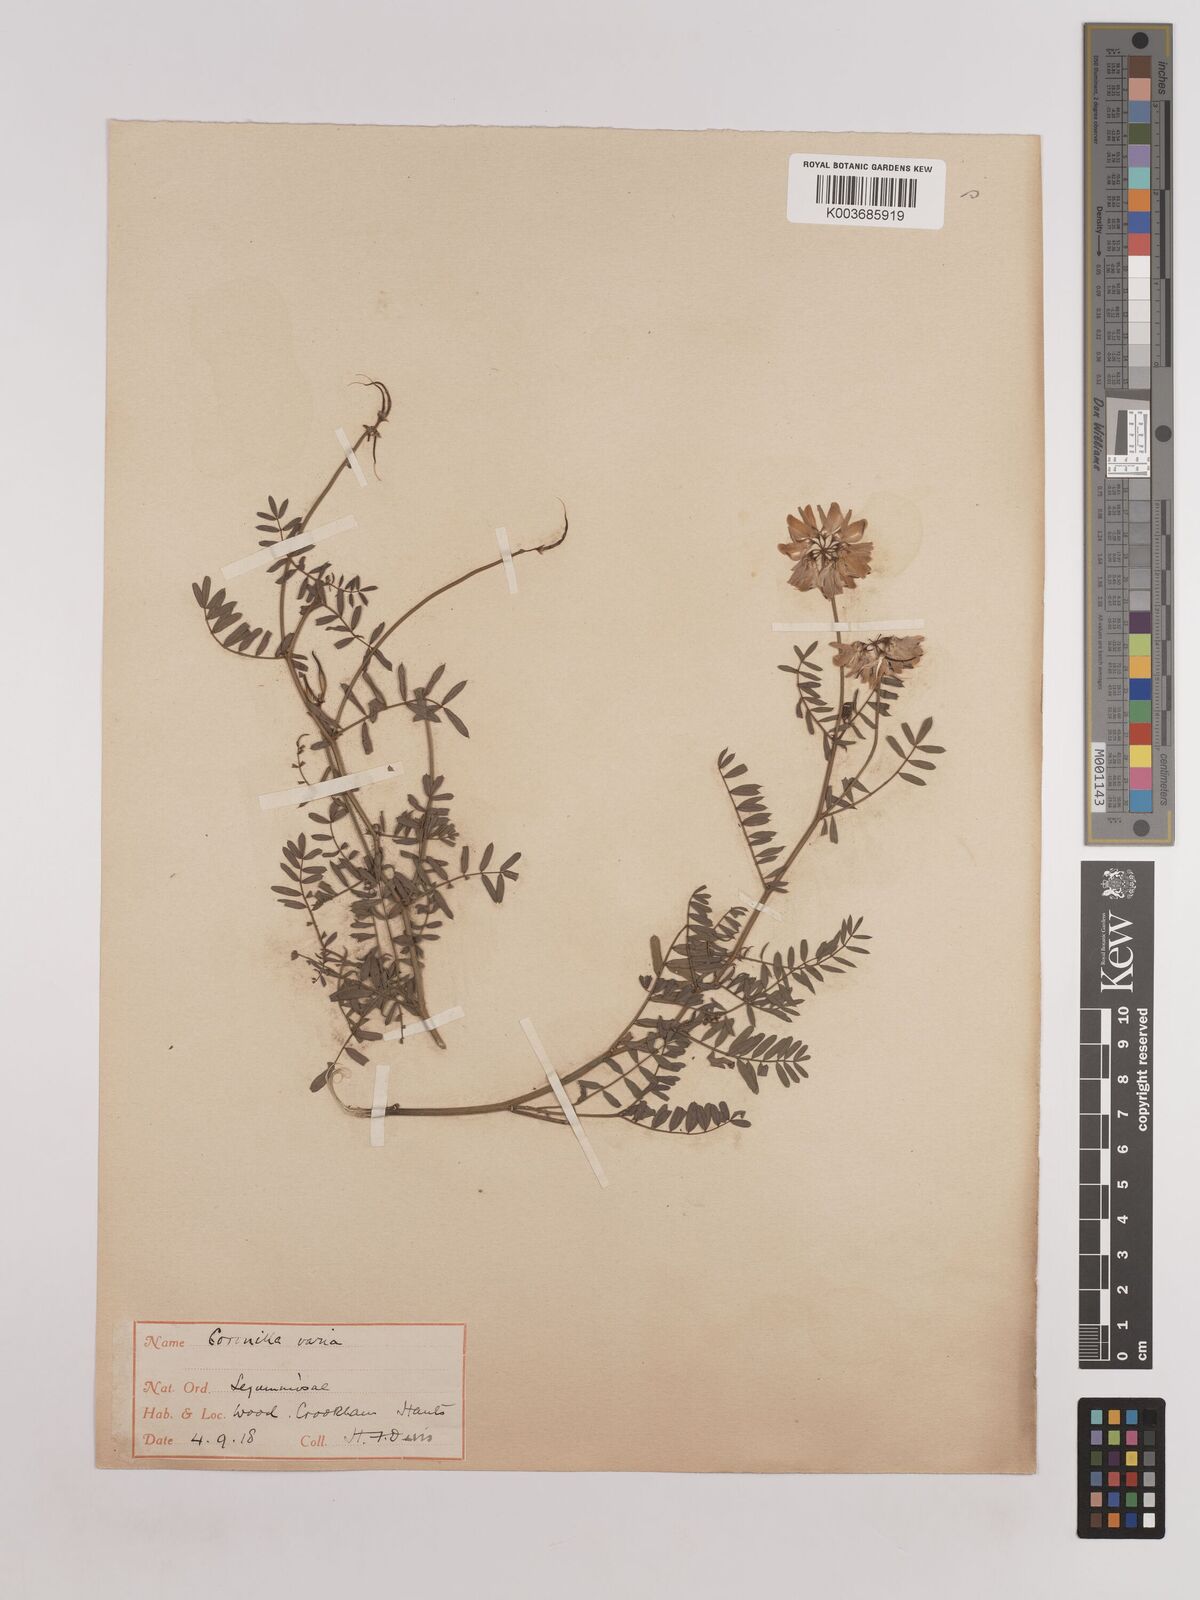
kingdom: Plantae
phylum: Tracheophyta
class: Magnoliopsida
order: Fabales
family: Fabaceae
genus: Coronilla
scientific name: Coronilla varia
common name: Crownvetch
